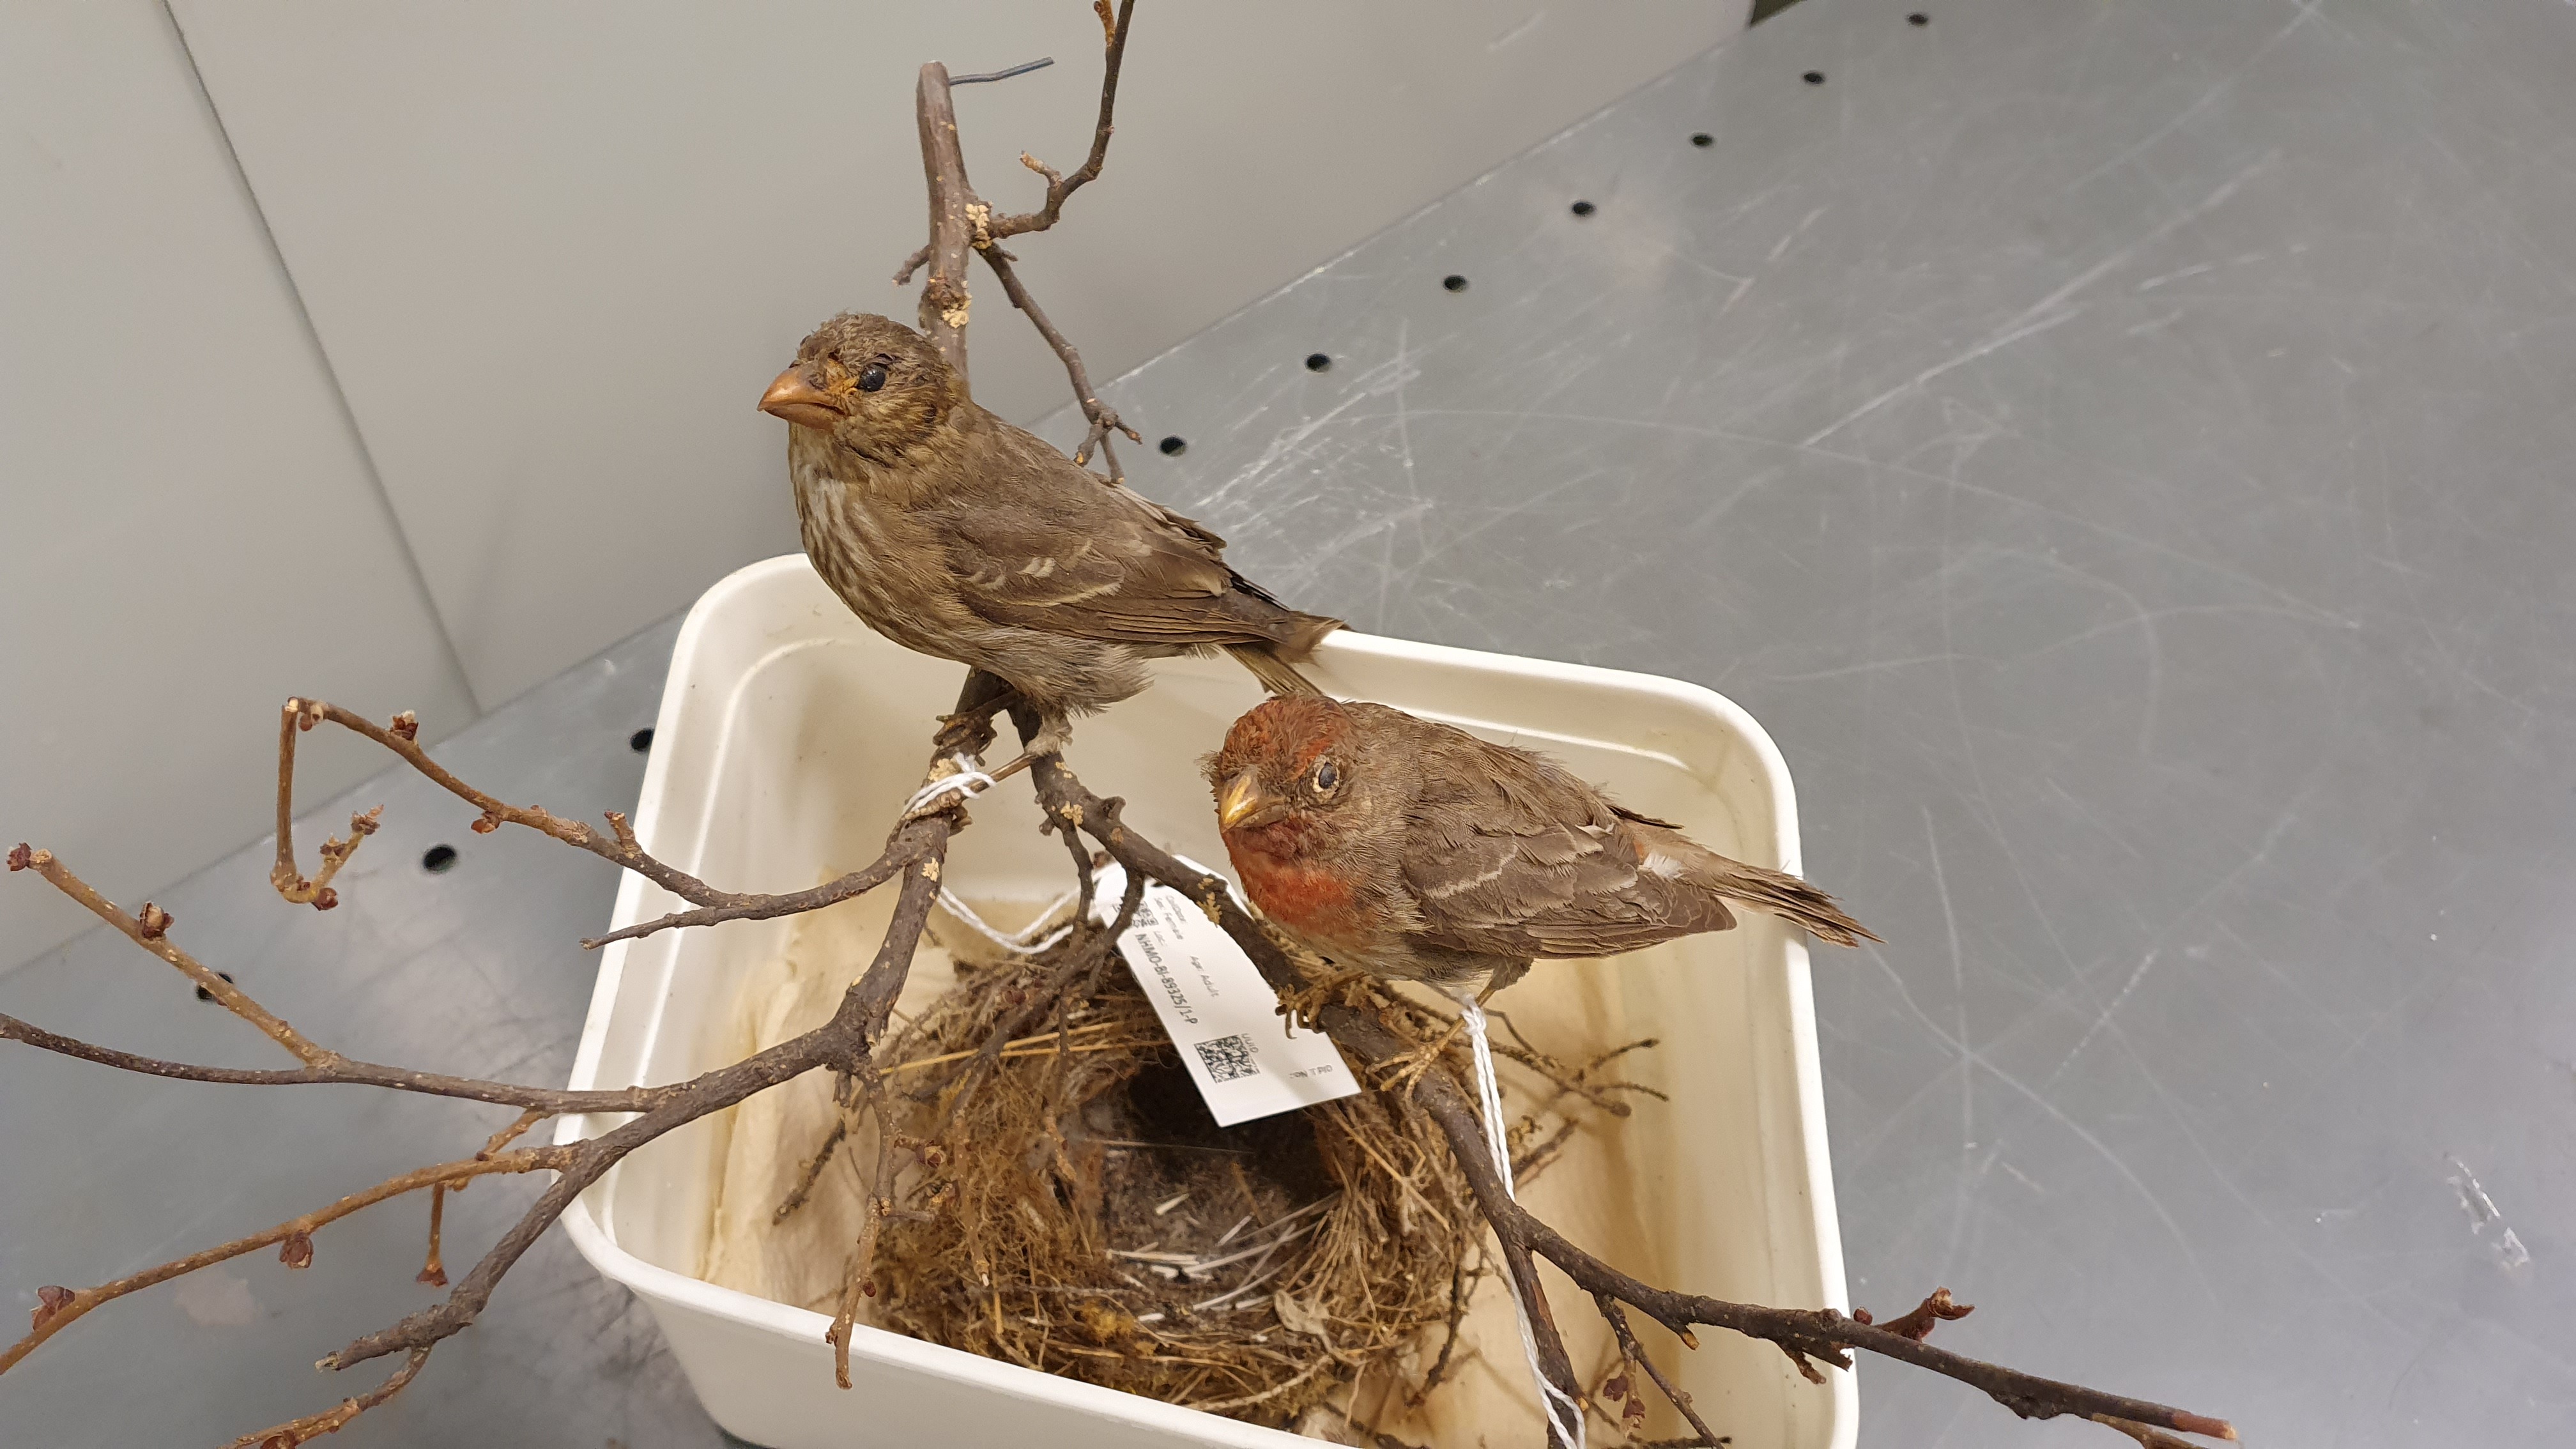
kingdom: Animalia
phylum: Chordata
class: Aves
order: Passeriformes
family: Fringillidae
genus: Carpodacus
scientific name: Carpodacus erythrinus
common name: Common rosefinch
